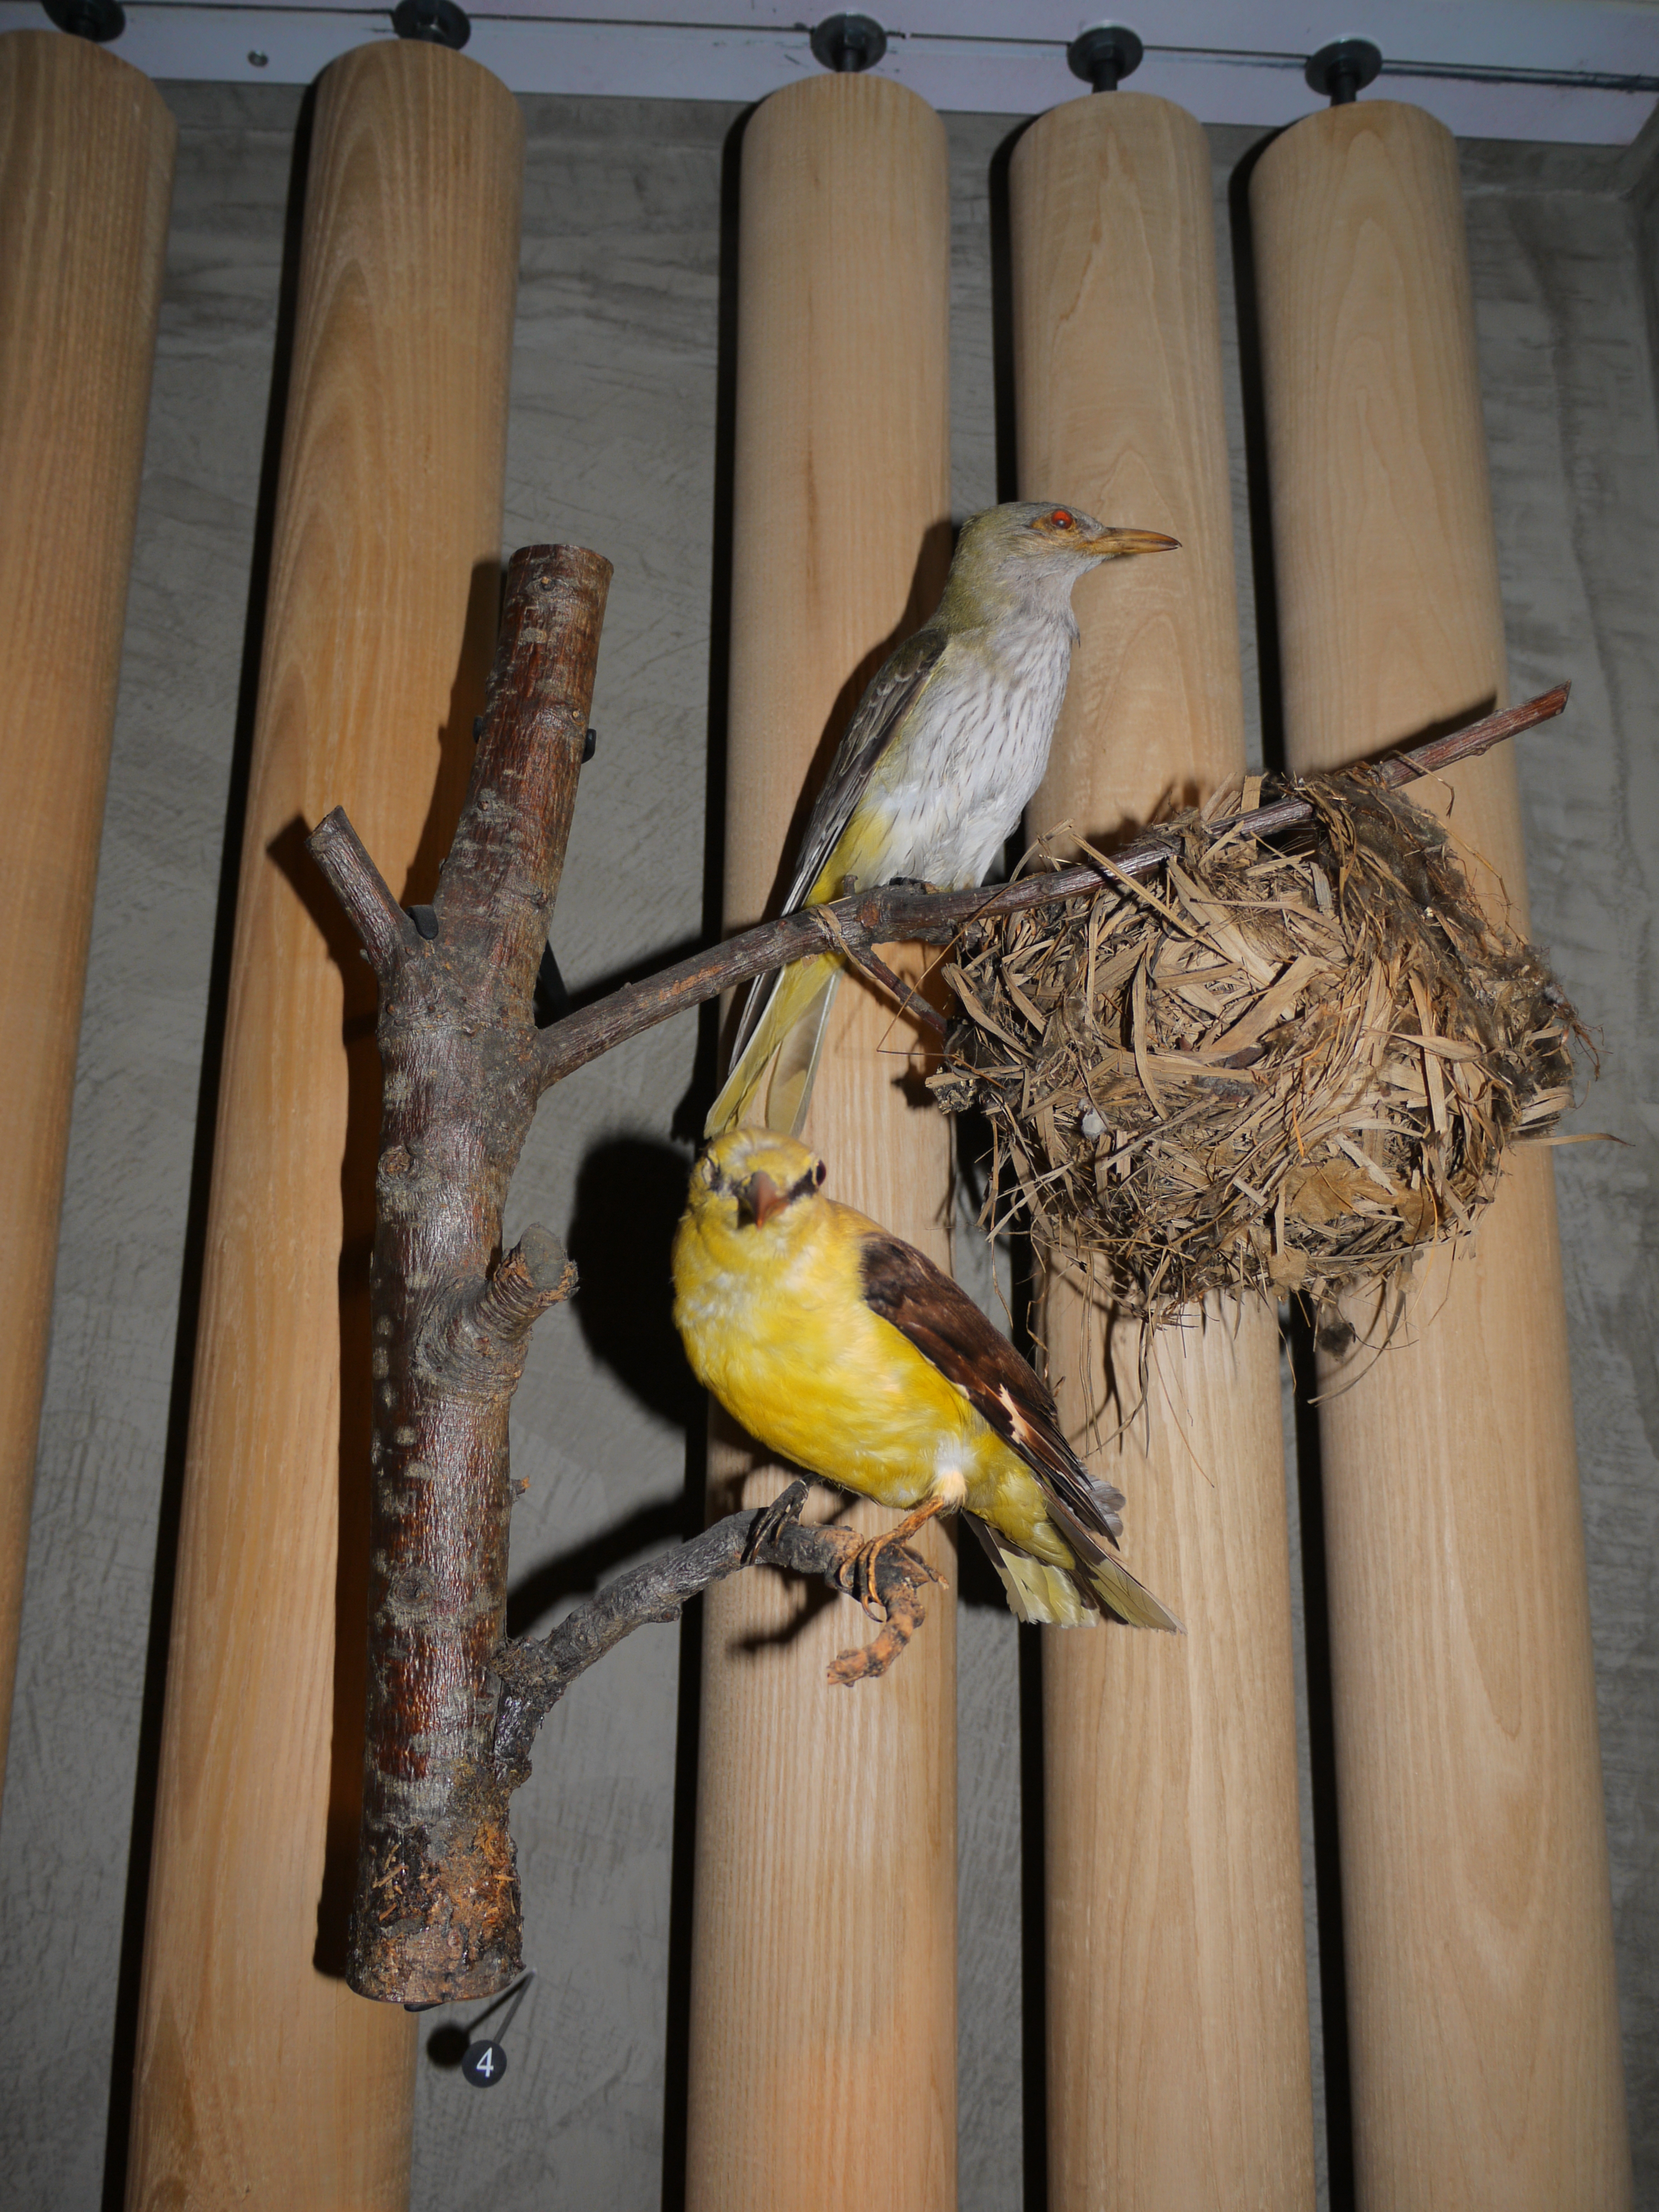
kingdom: Animalia
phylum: Chordata
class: Aves
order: Passeriformes
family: Oriolidae
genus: Oriolus
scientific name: Oriolus oriolus
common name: Eurasian golden oriole
